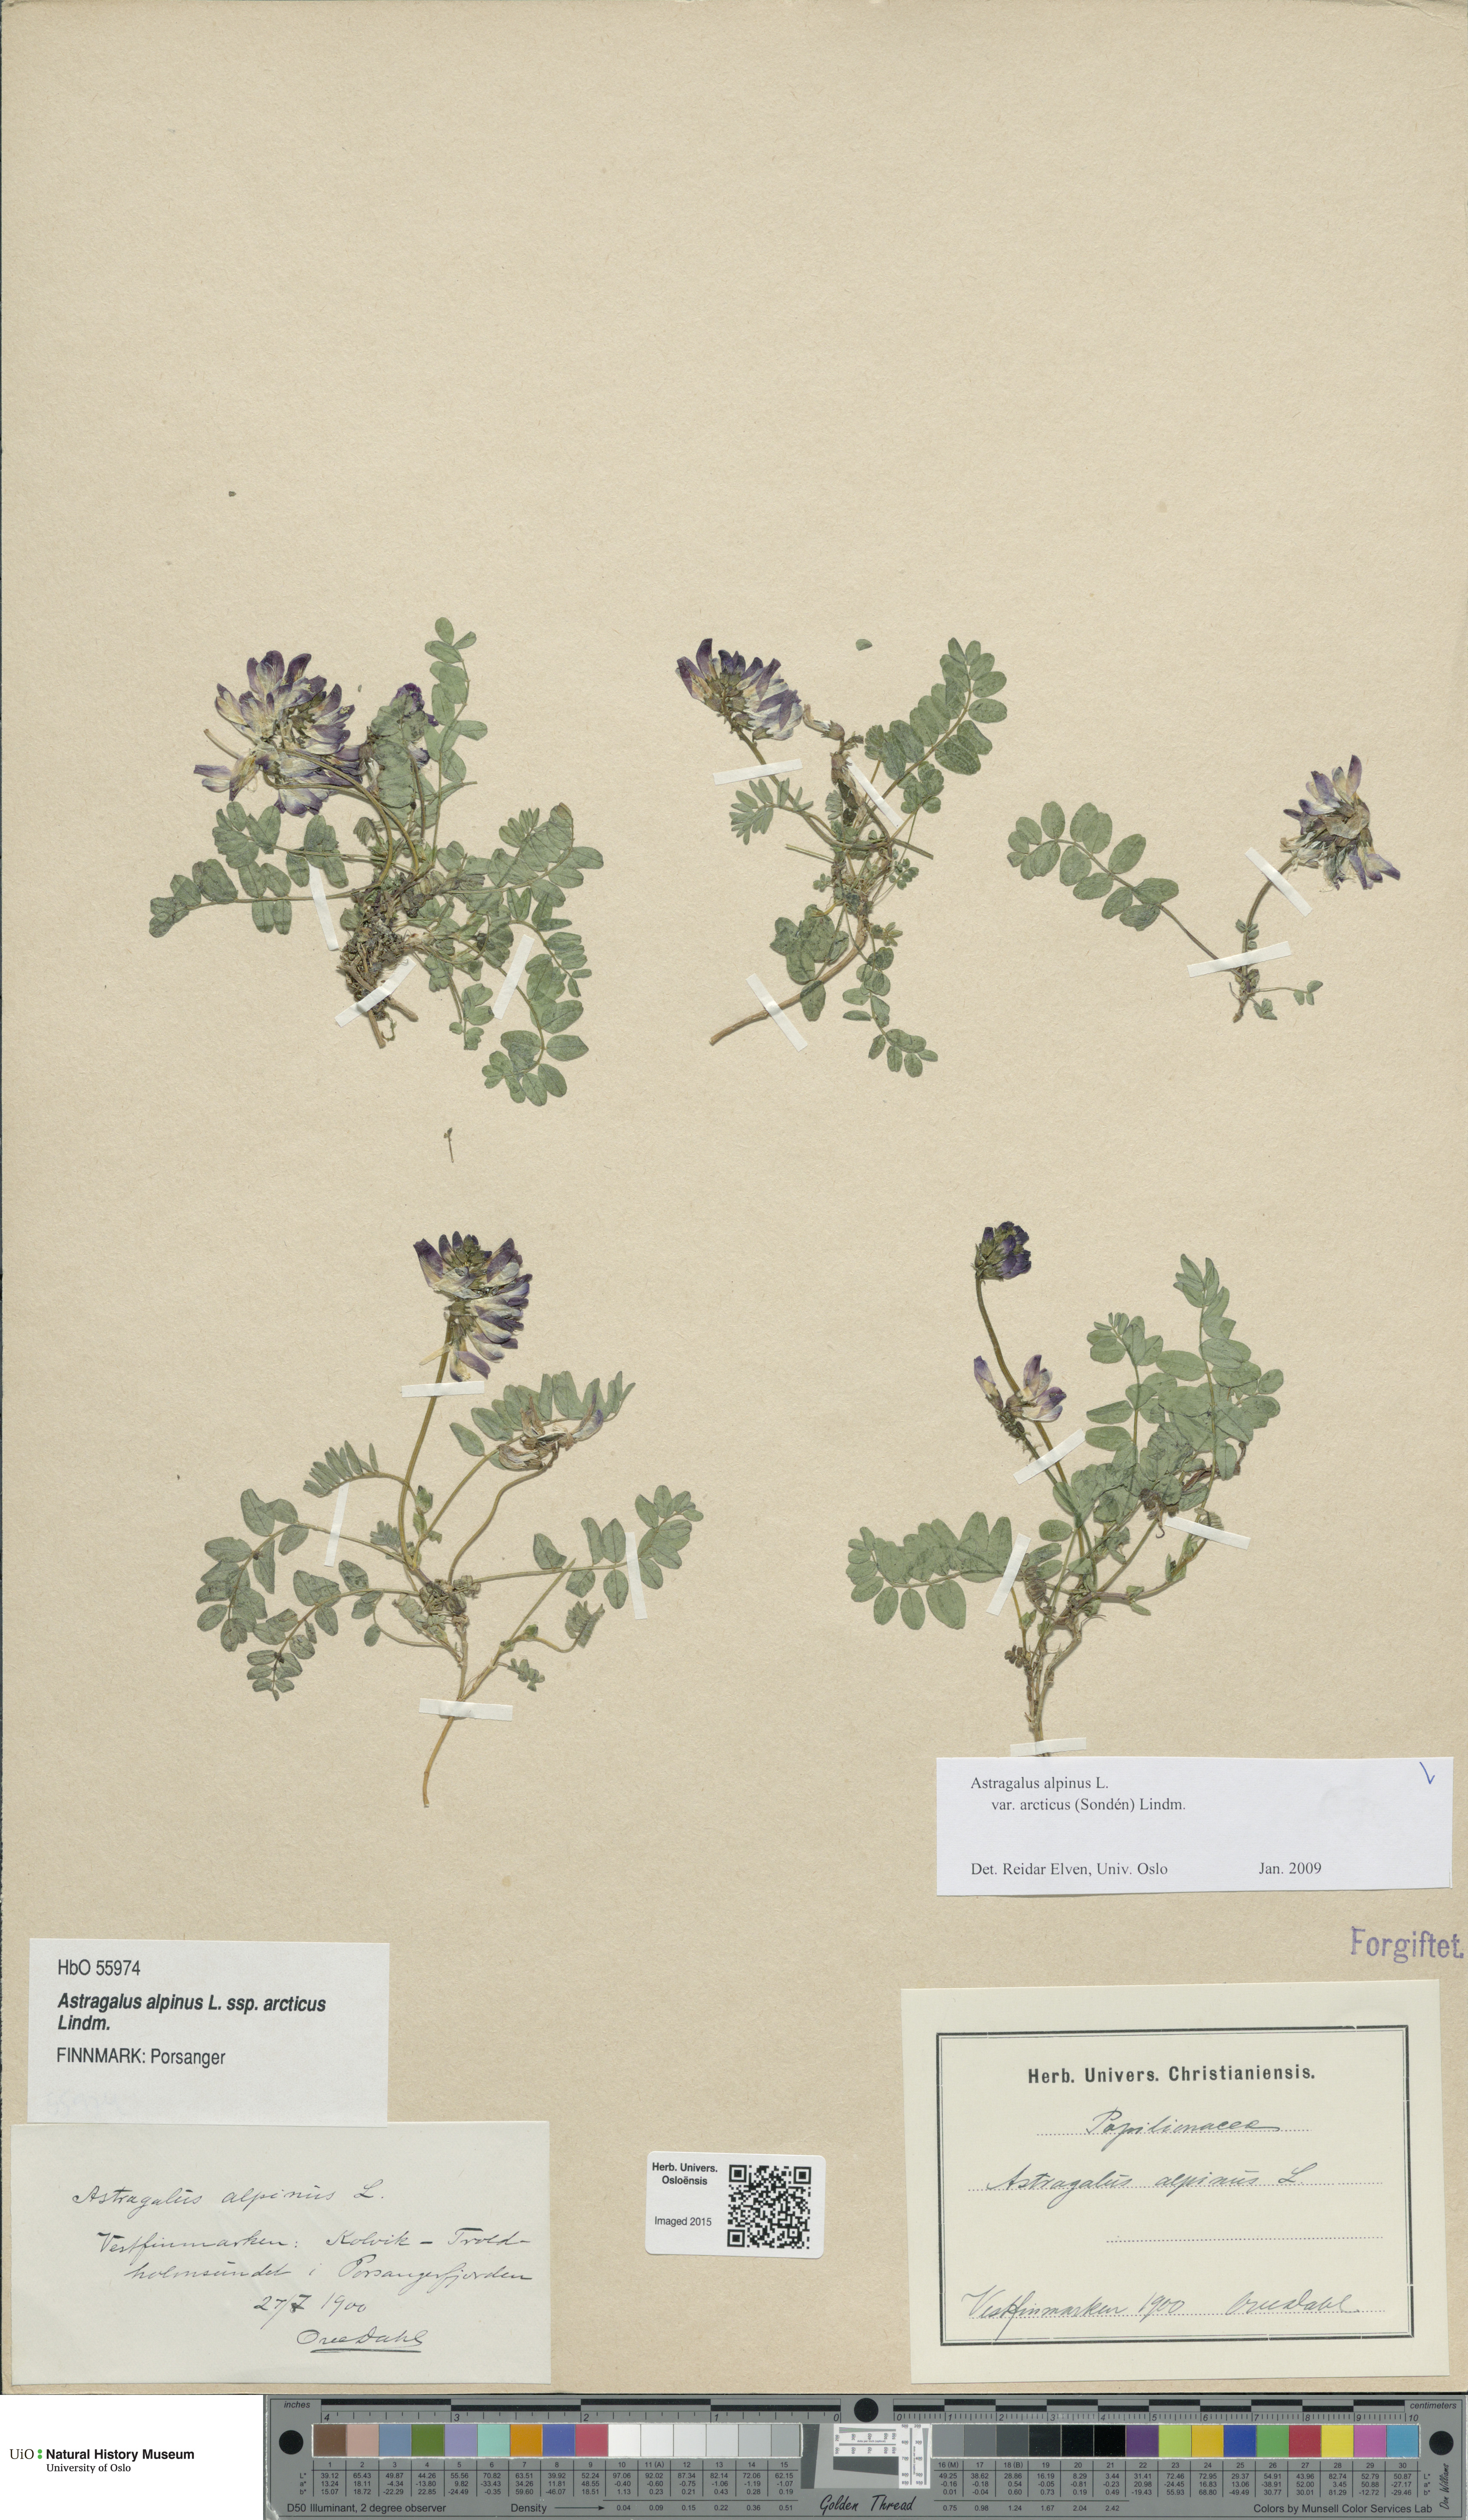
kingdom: Plantae
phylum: Tracheophyta
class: Magnoliopsida
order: Fabales
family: Fabaceae
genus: Astragalus
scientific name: Astragalus norvegicus
